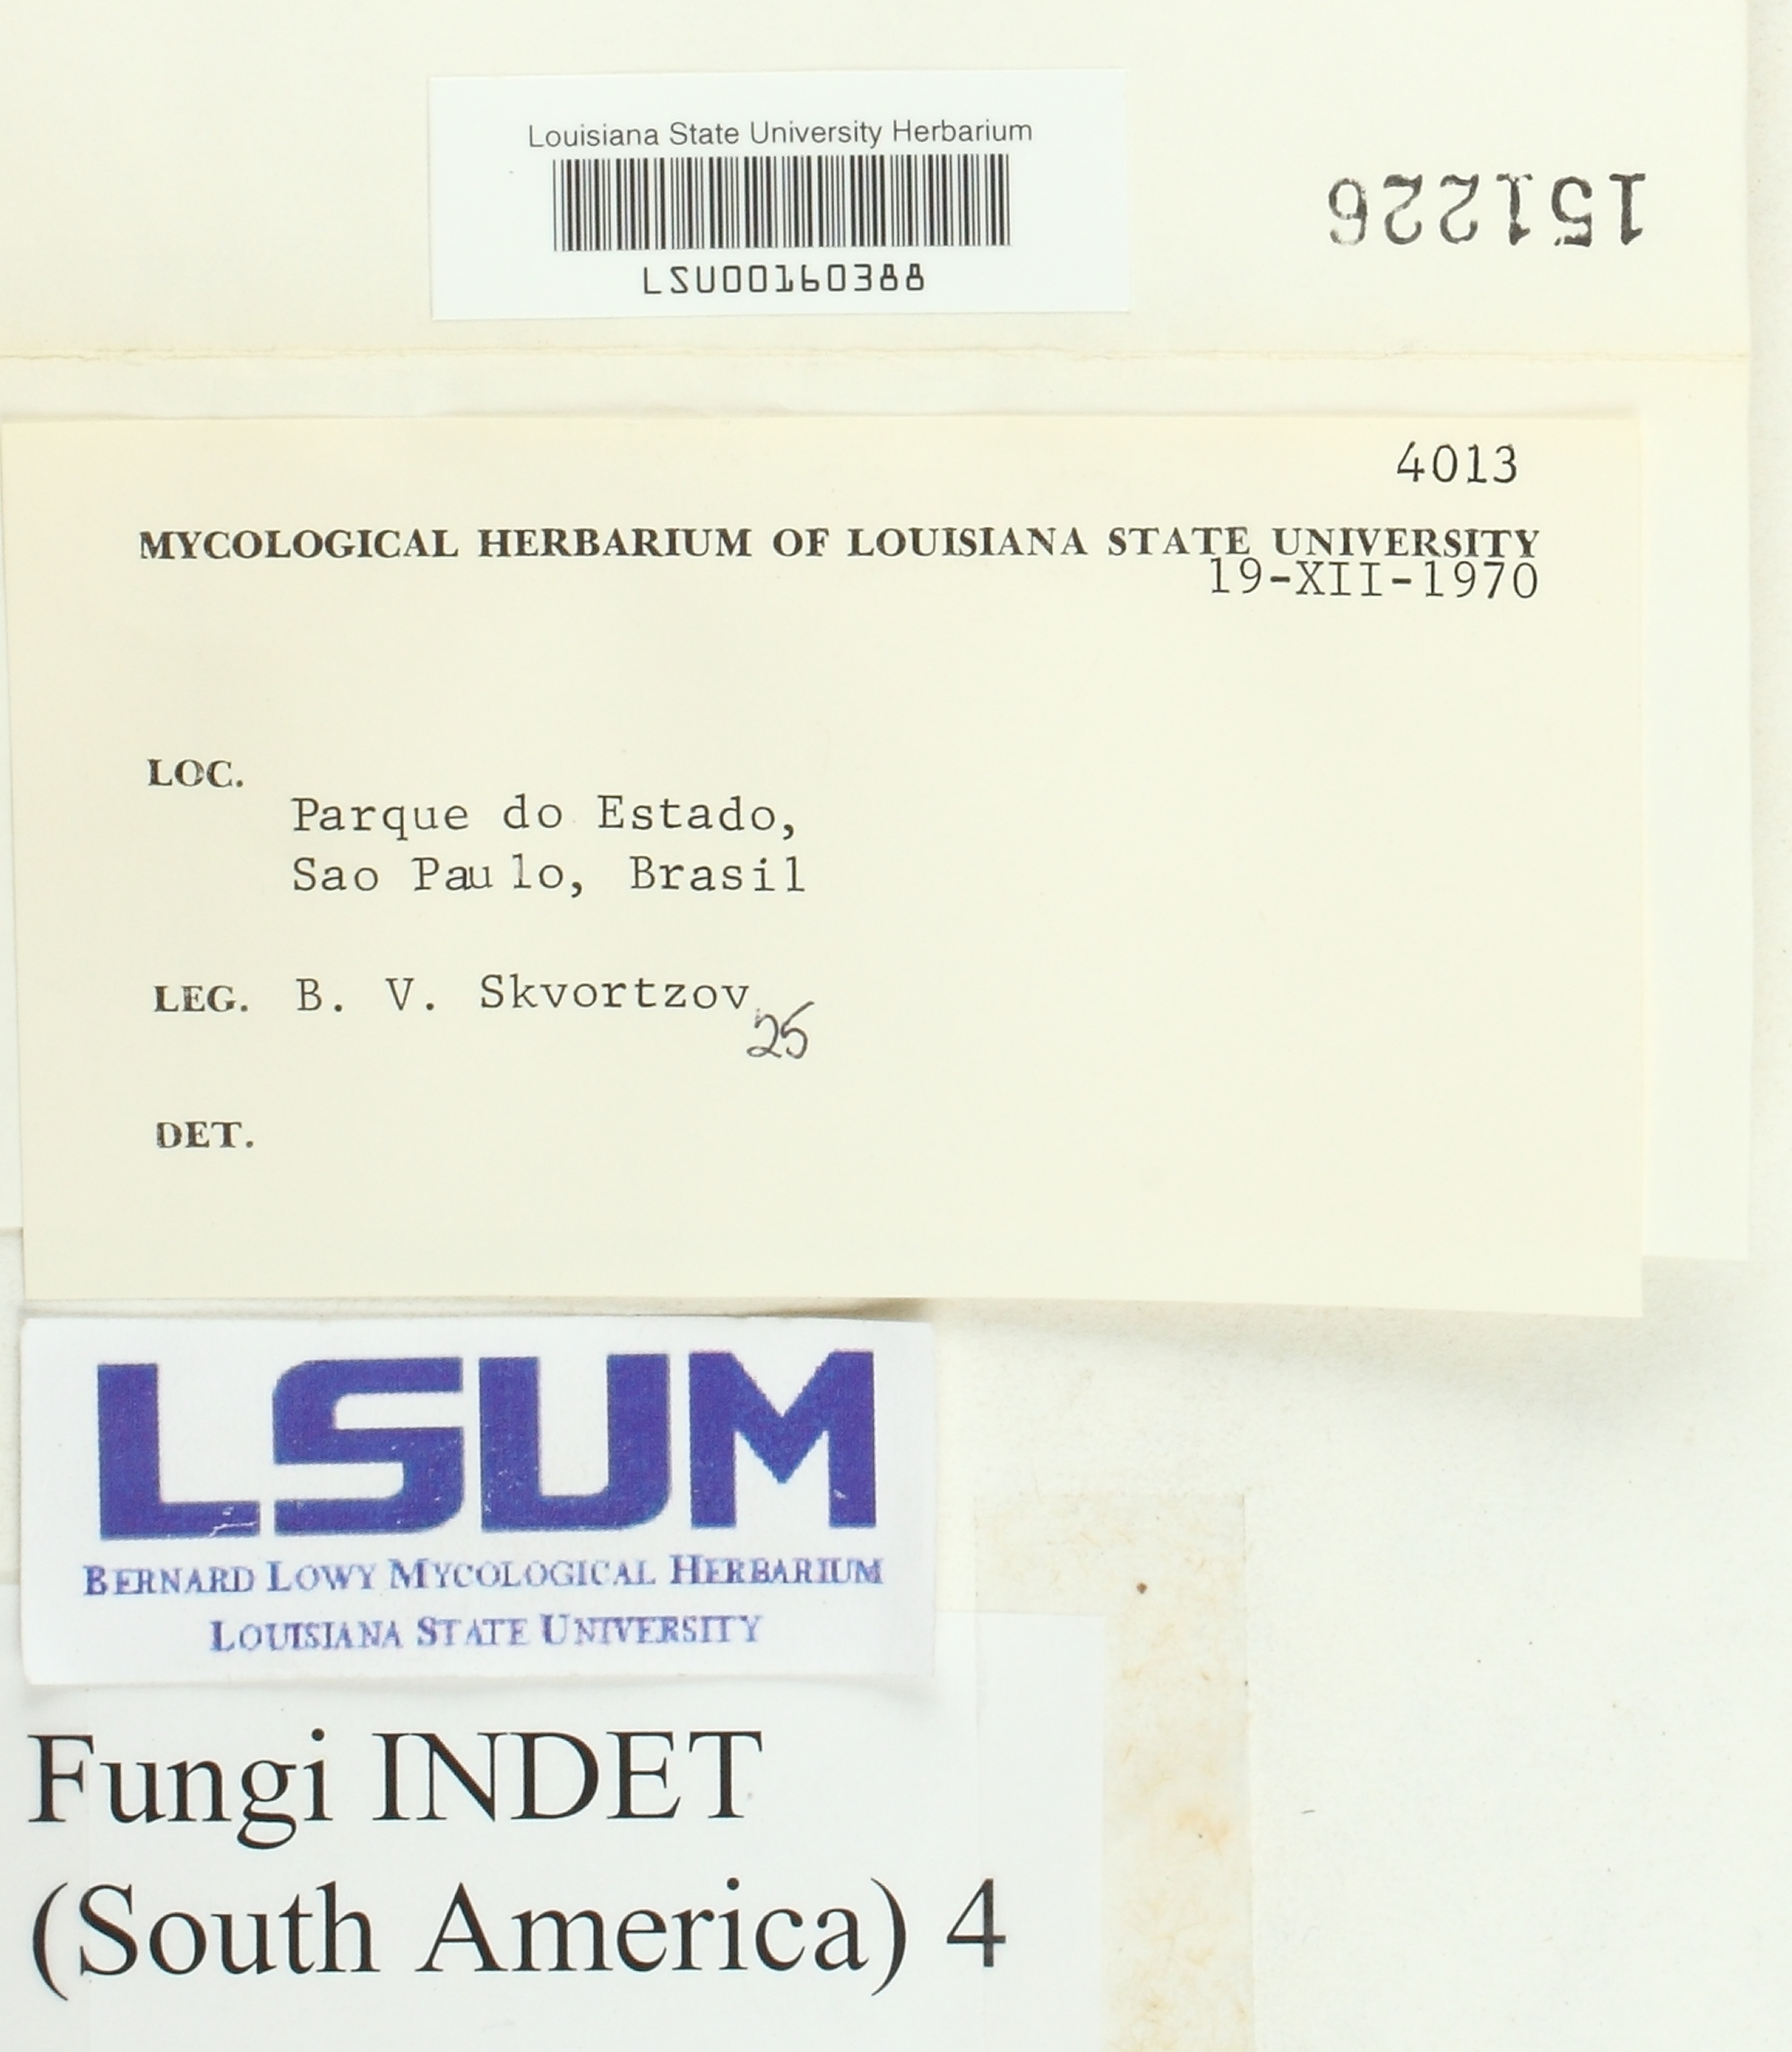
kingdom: Fungi
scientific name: Fungi
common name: Fungi
